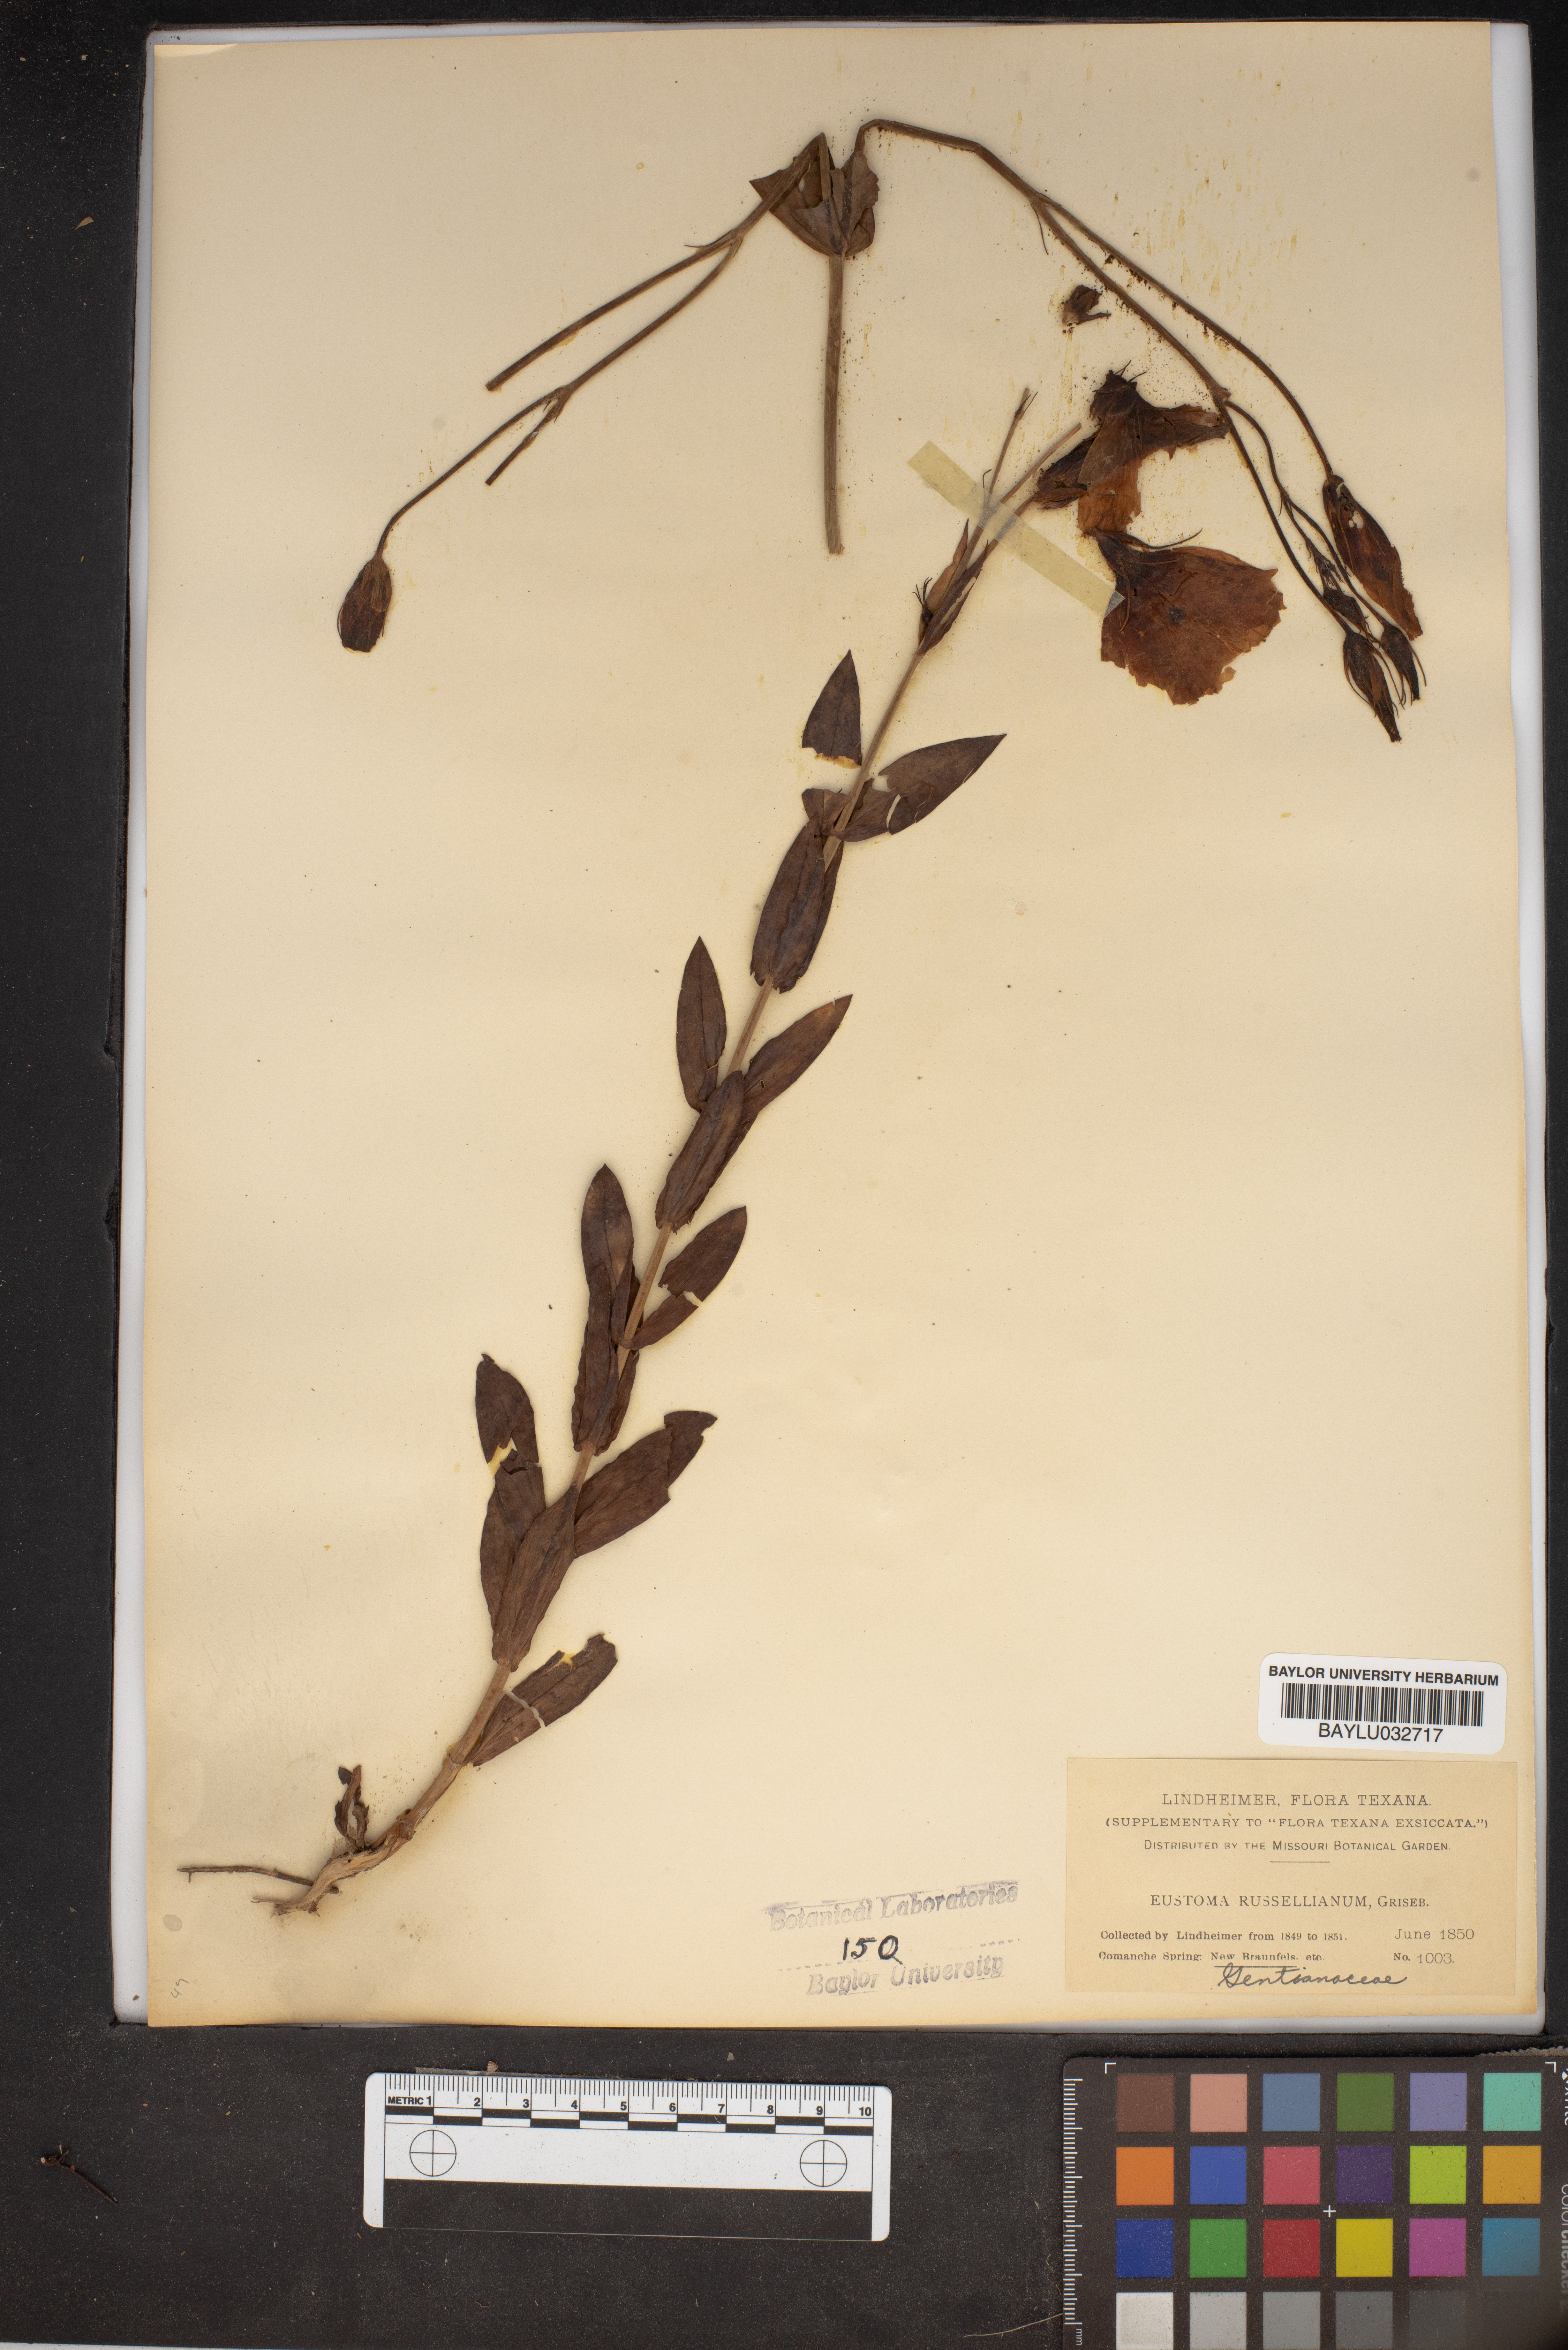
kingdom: Plantae
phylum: Tracheophyta
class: Magnoliopsida
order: Gentianales
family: Gentianaceae
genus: Eustoma
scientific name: Eustoma russellianum
